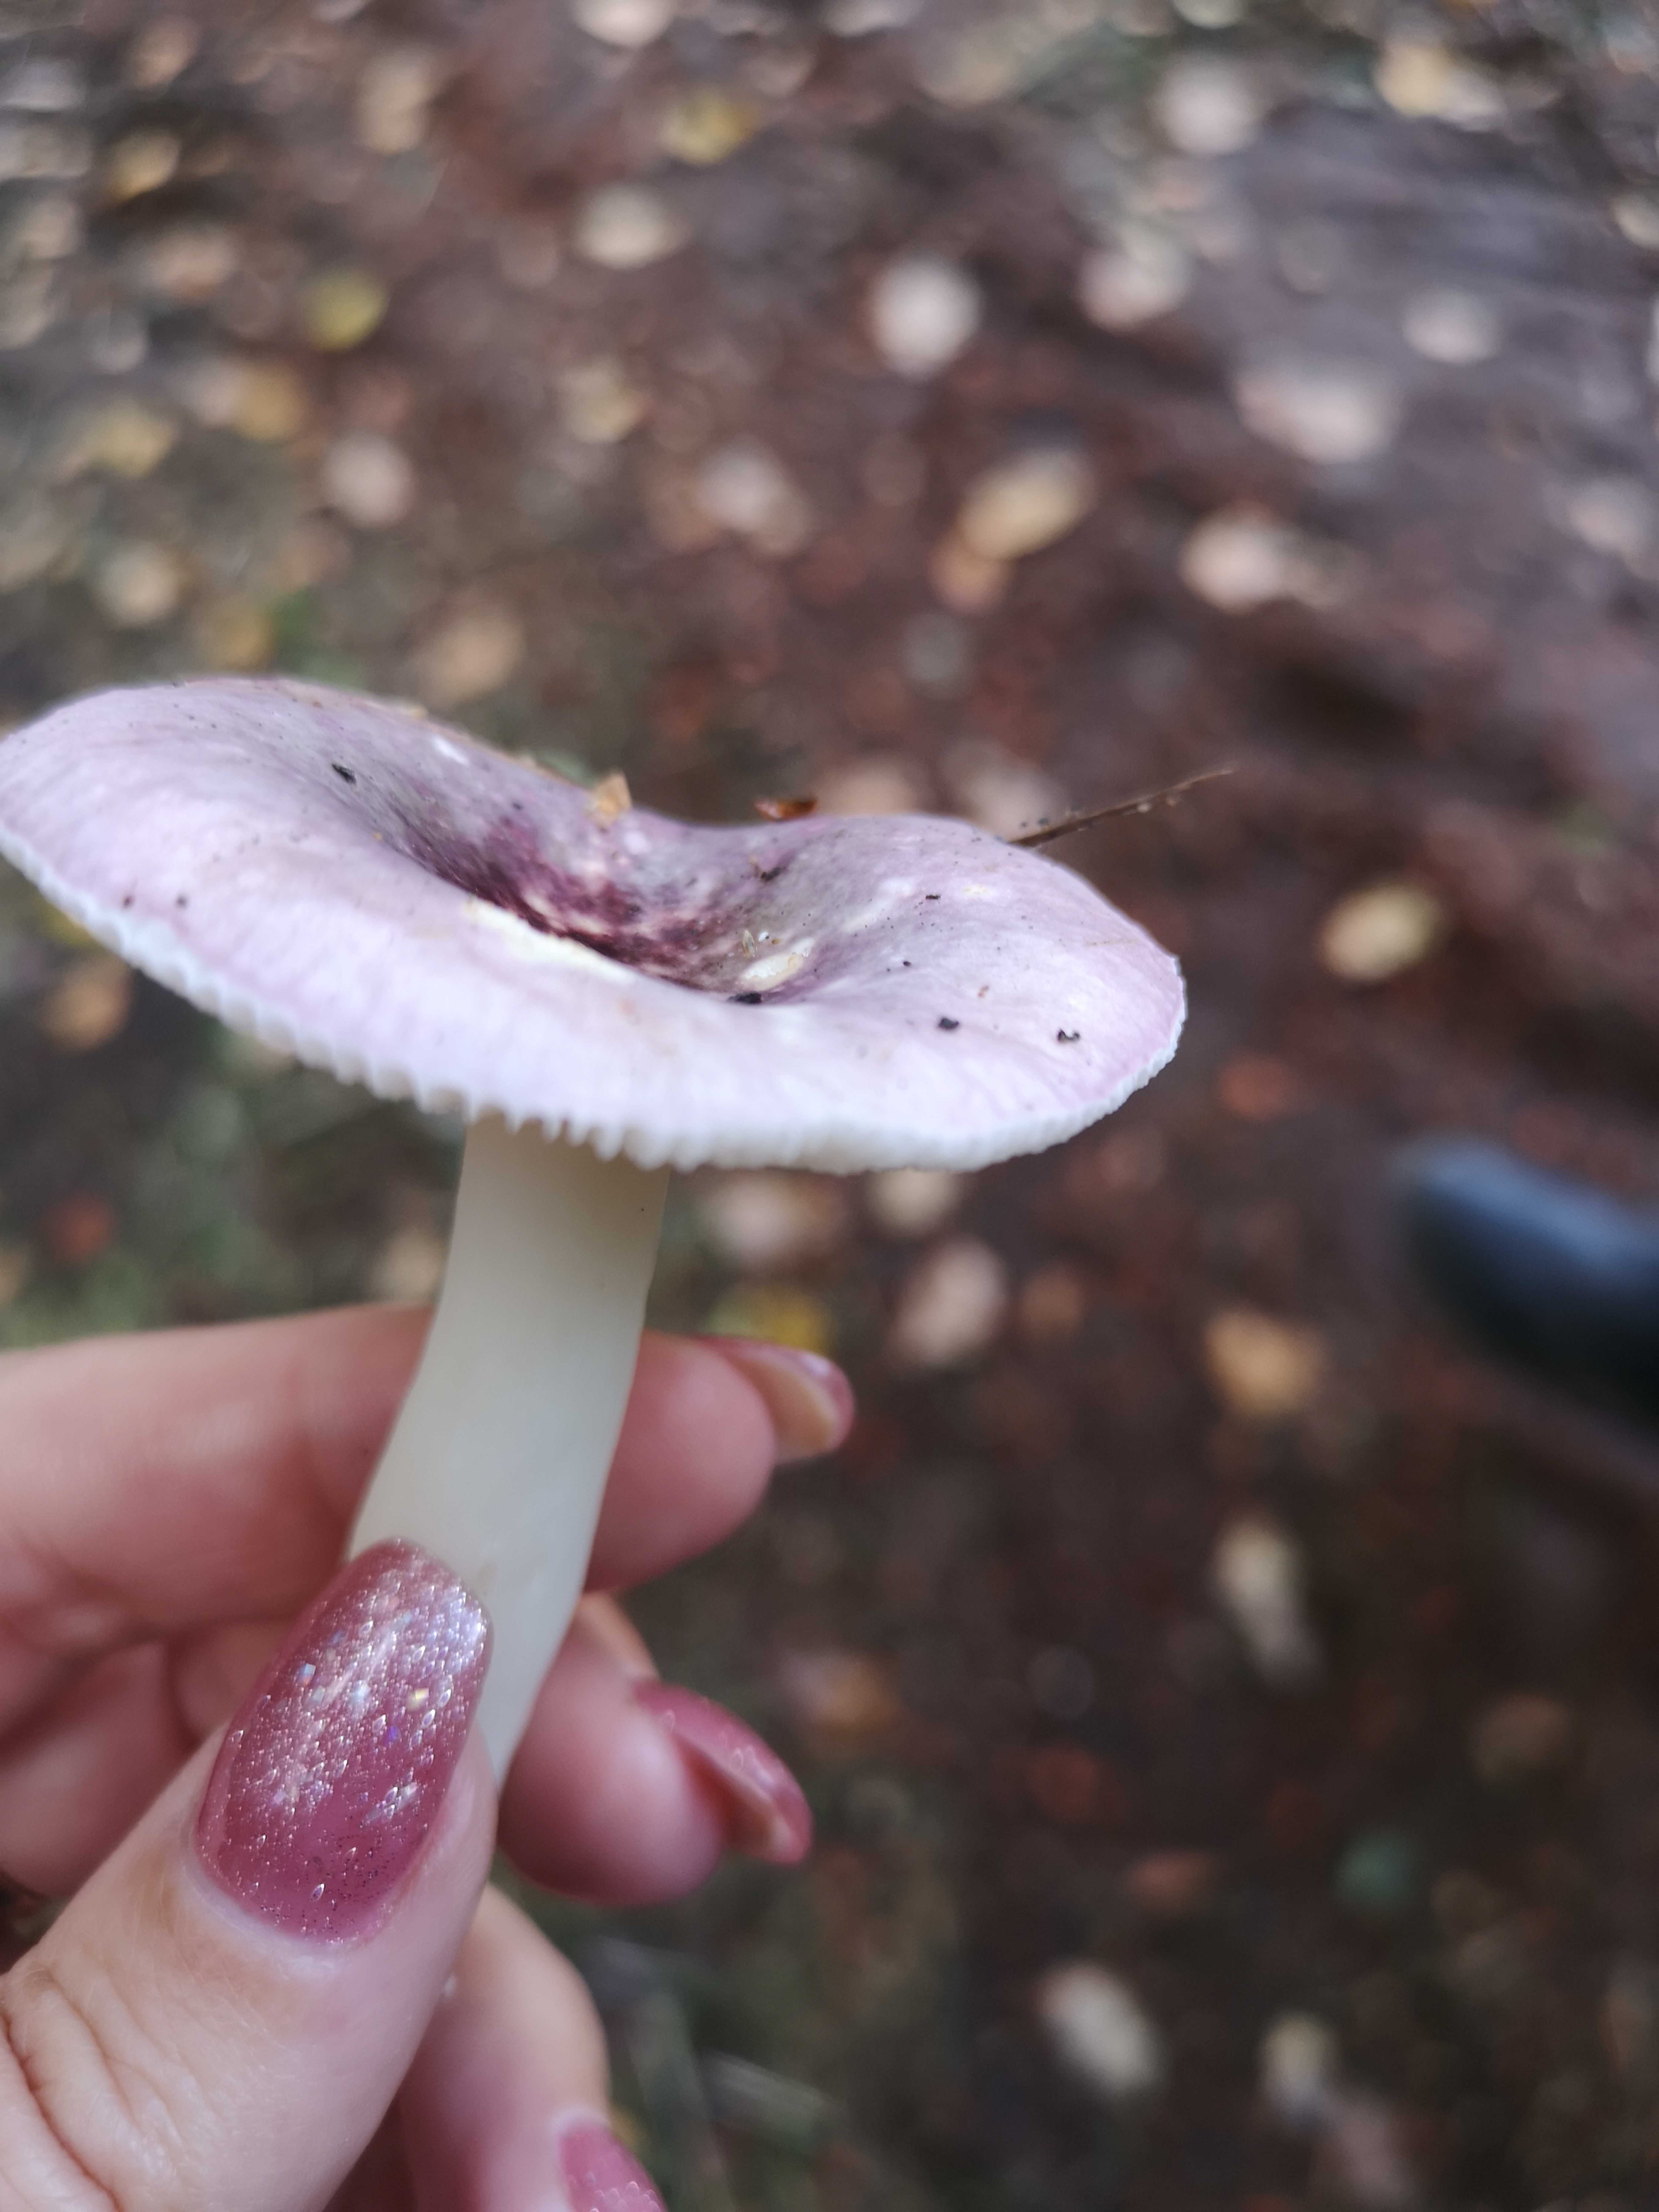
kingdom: Fungi
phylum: Basidiomycota
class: Agaricomycetes
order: Russulales
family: Russulaceae
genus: Russula
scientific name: Russula
